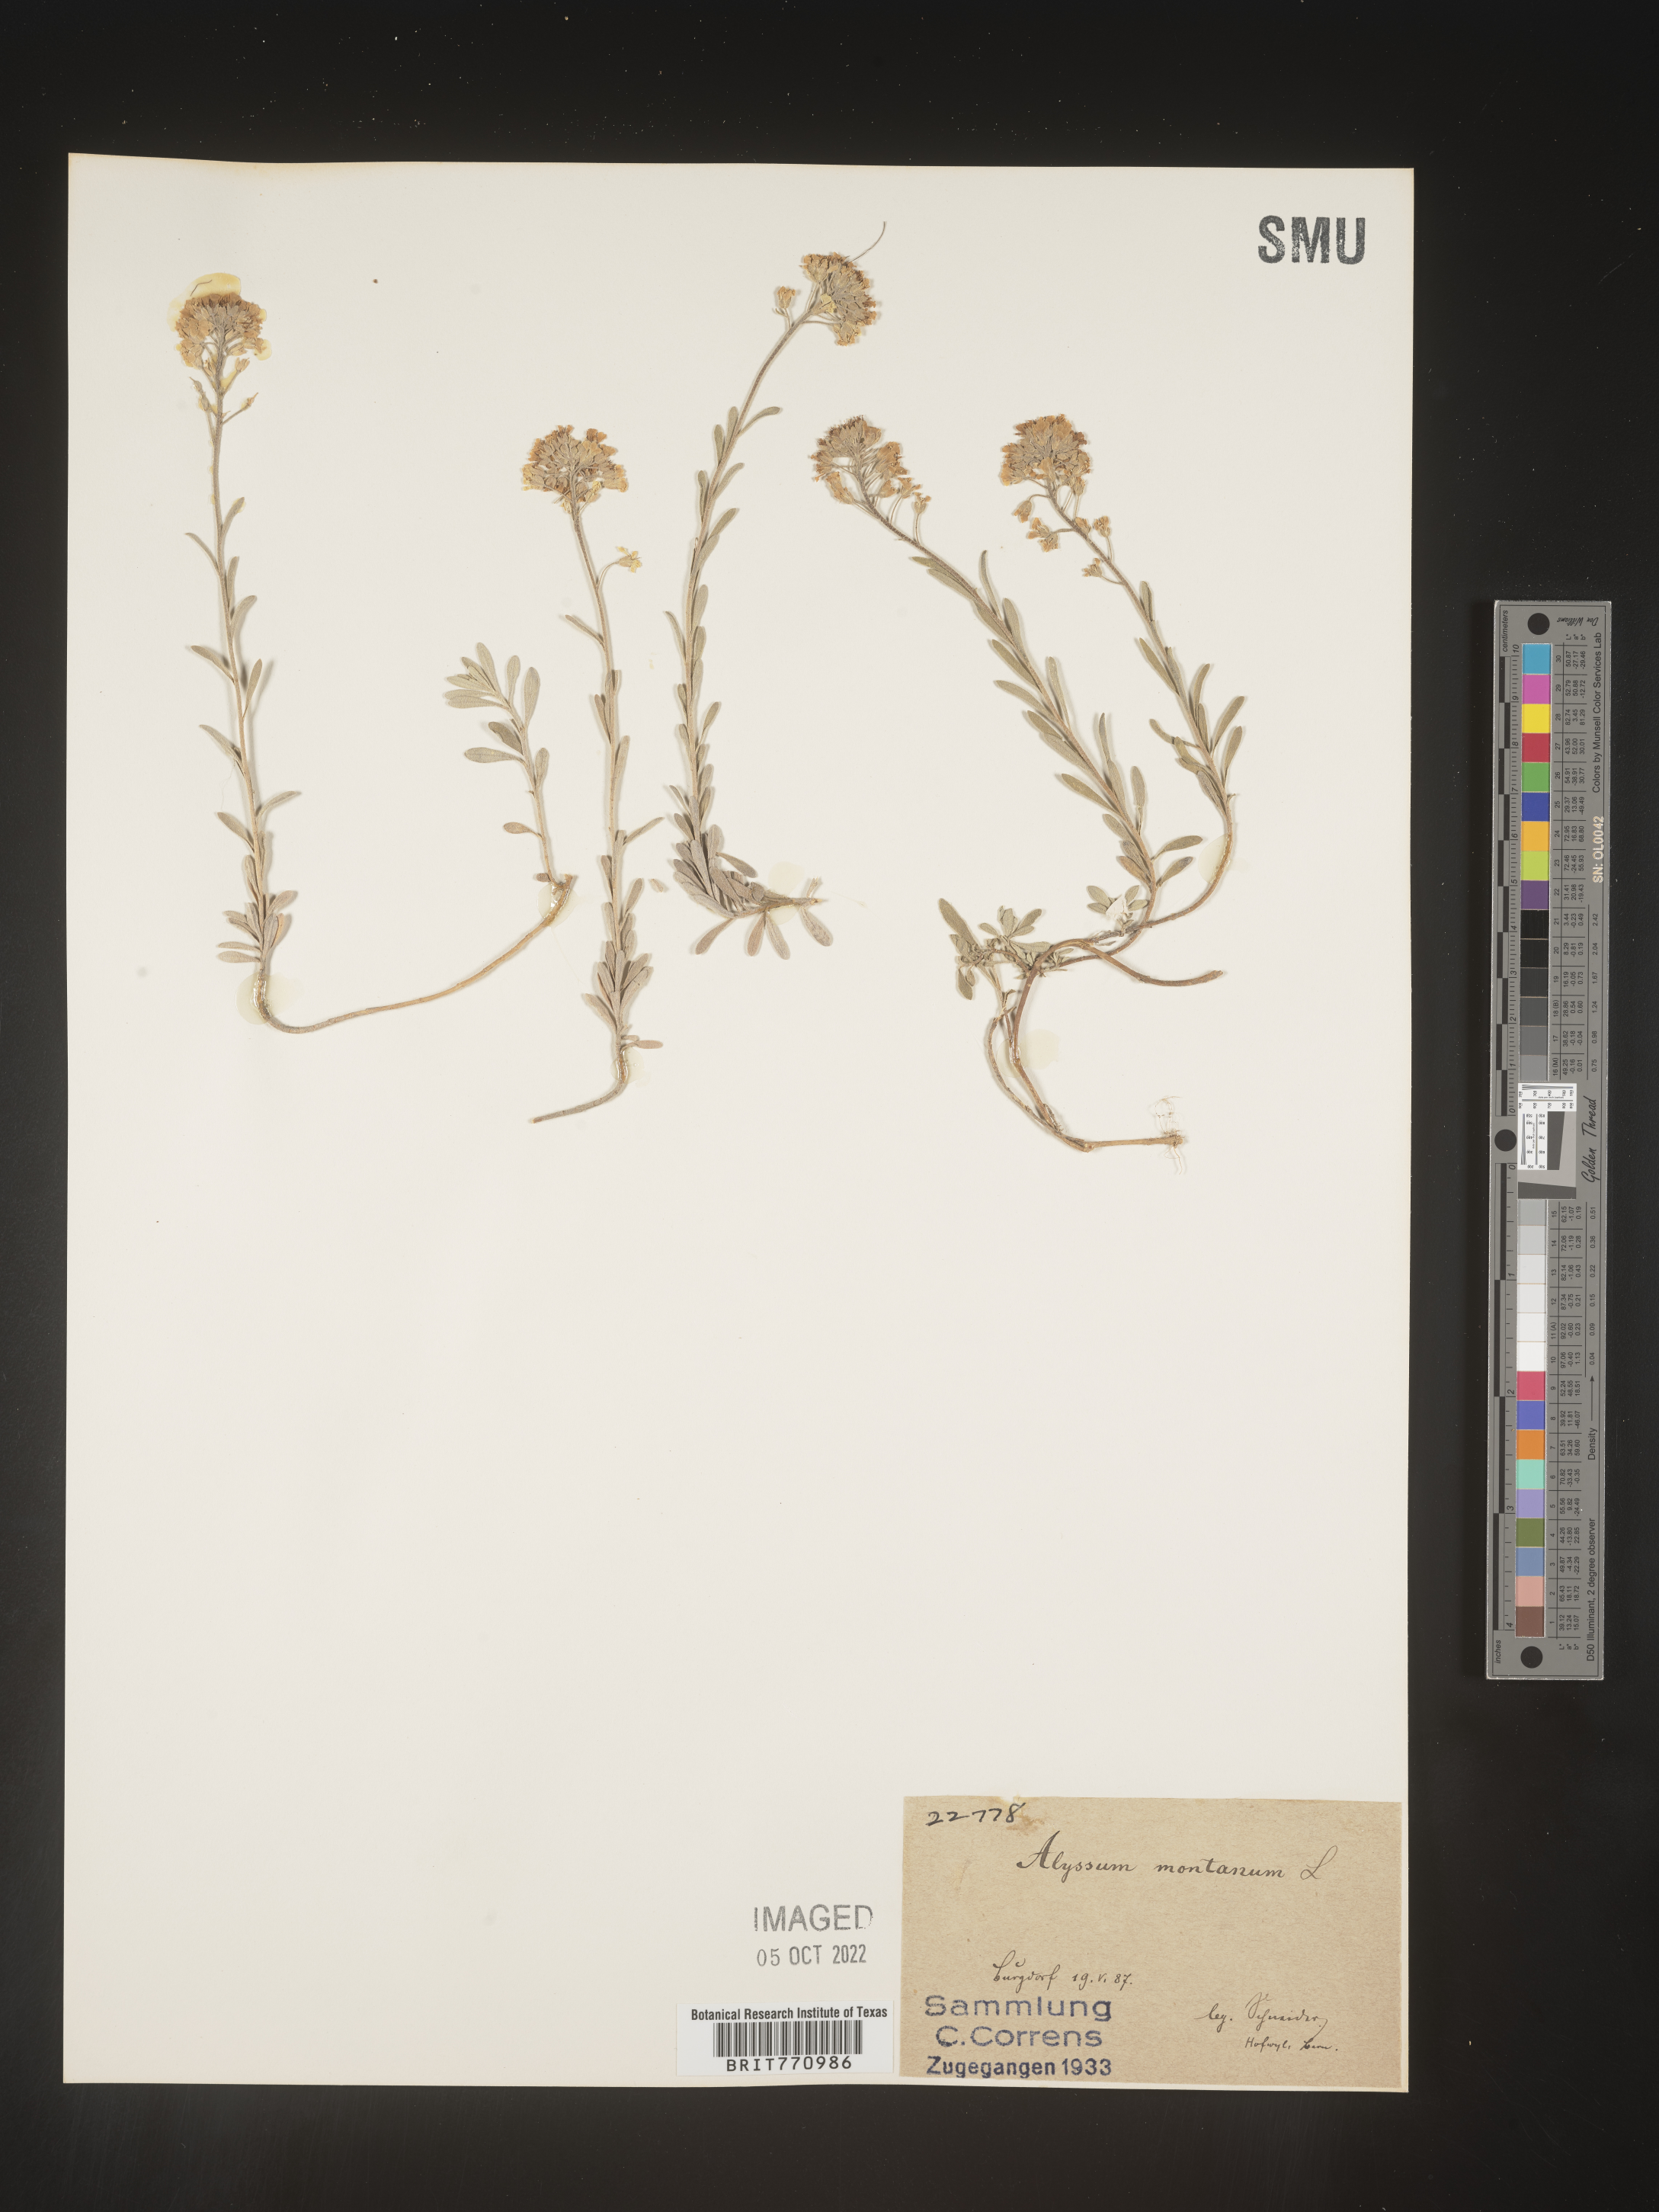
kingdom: Plantae
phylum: Tracheophyta
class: Magnoliopsida
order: Brassicales
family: Brassicaceae
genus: Alyssum
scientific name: Alyssum
